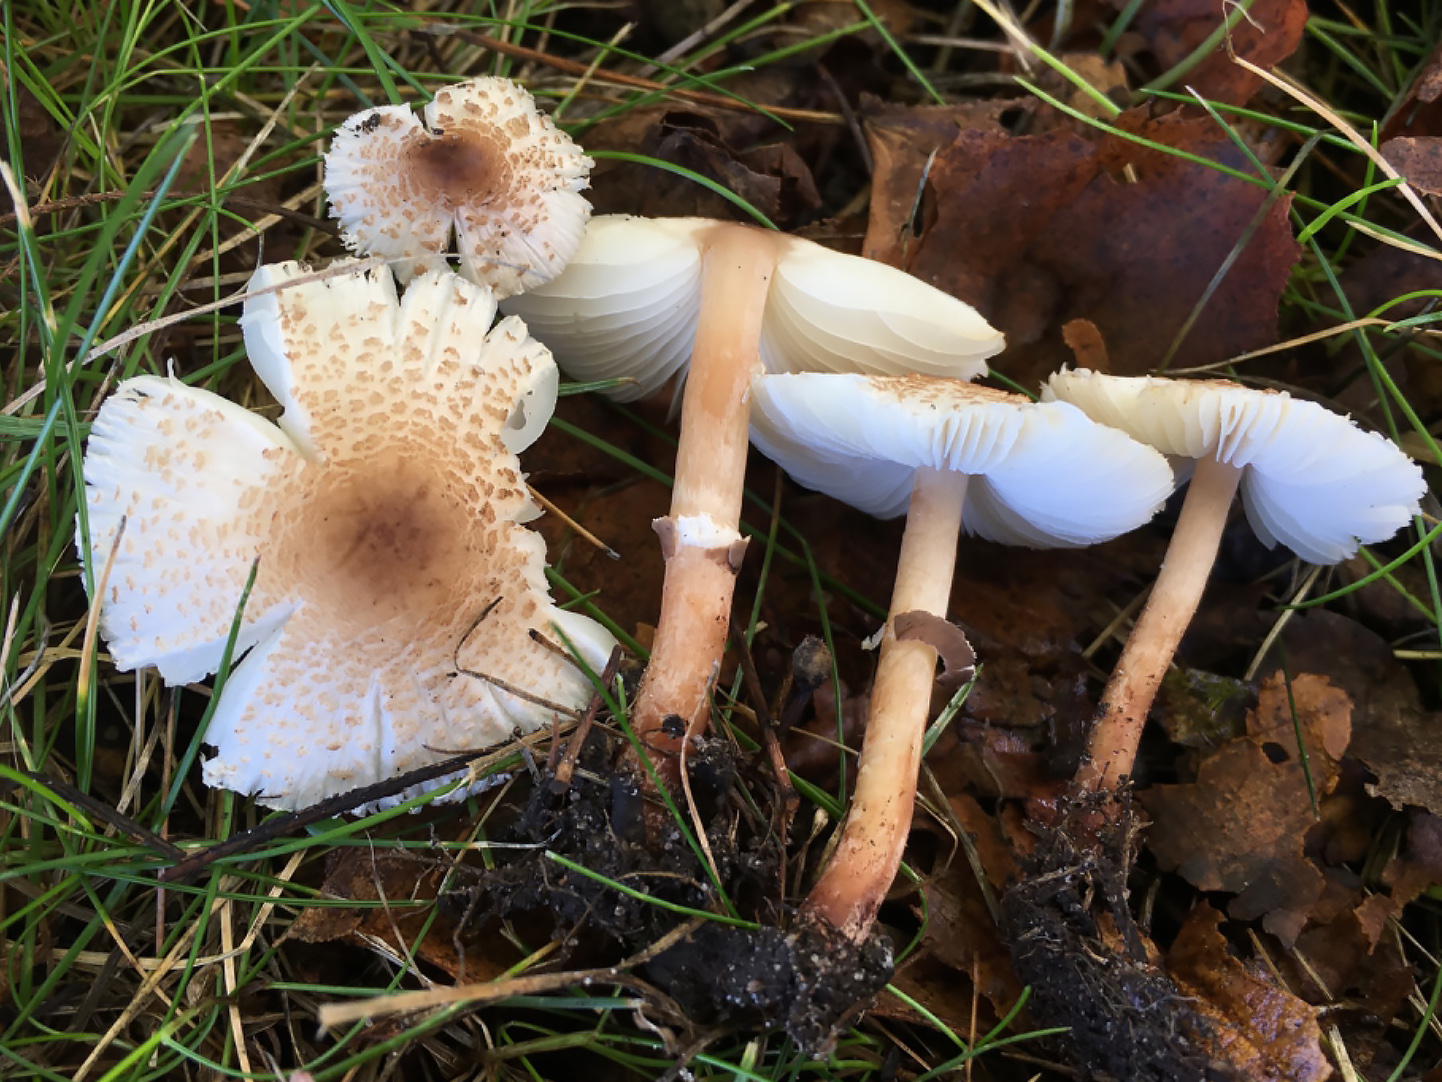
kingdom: Fungi
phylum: Basidiomycota
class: Agaricomycetes
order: Agaricales
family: Agaricaceae
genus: Lepiota
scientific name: Lepiota lilacea
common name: lillabrun parasolhat
